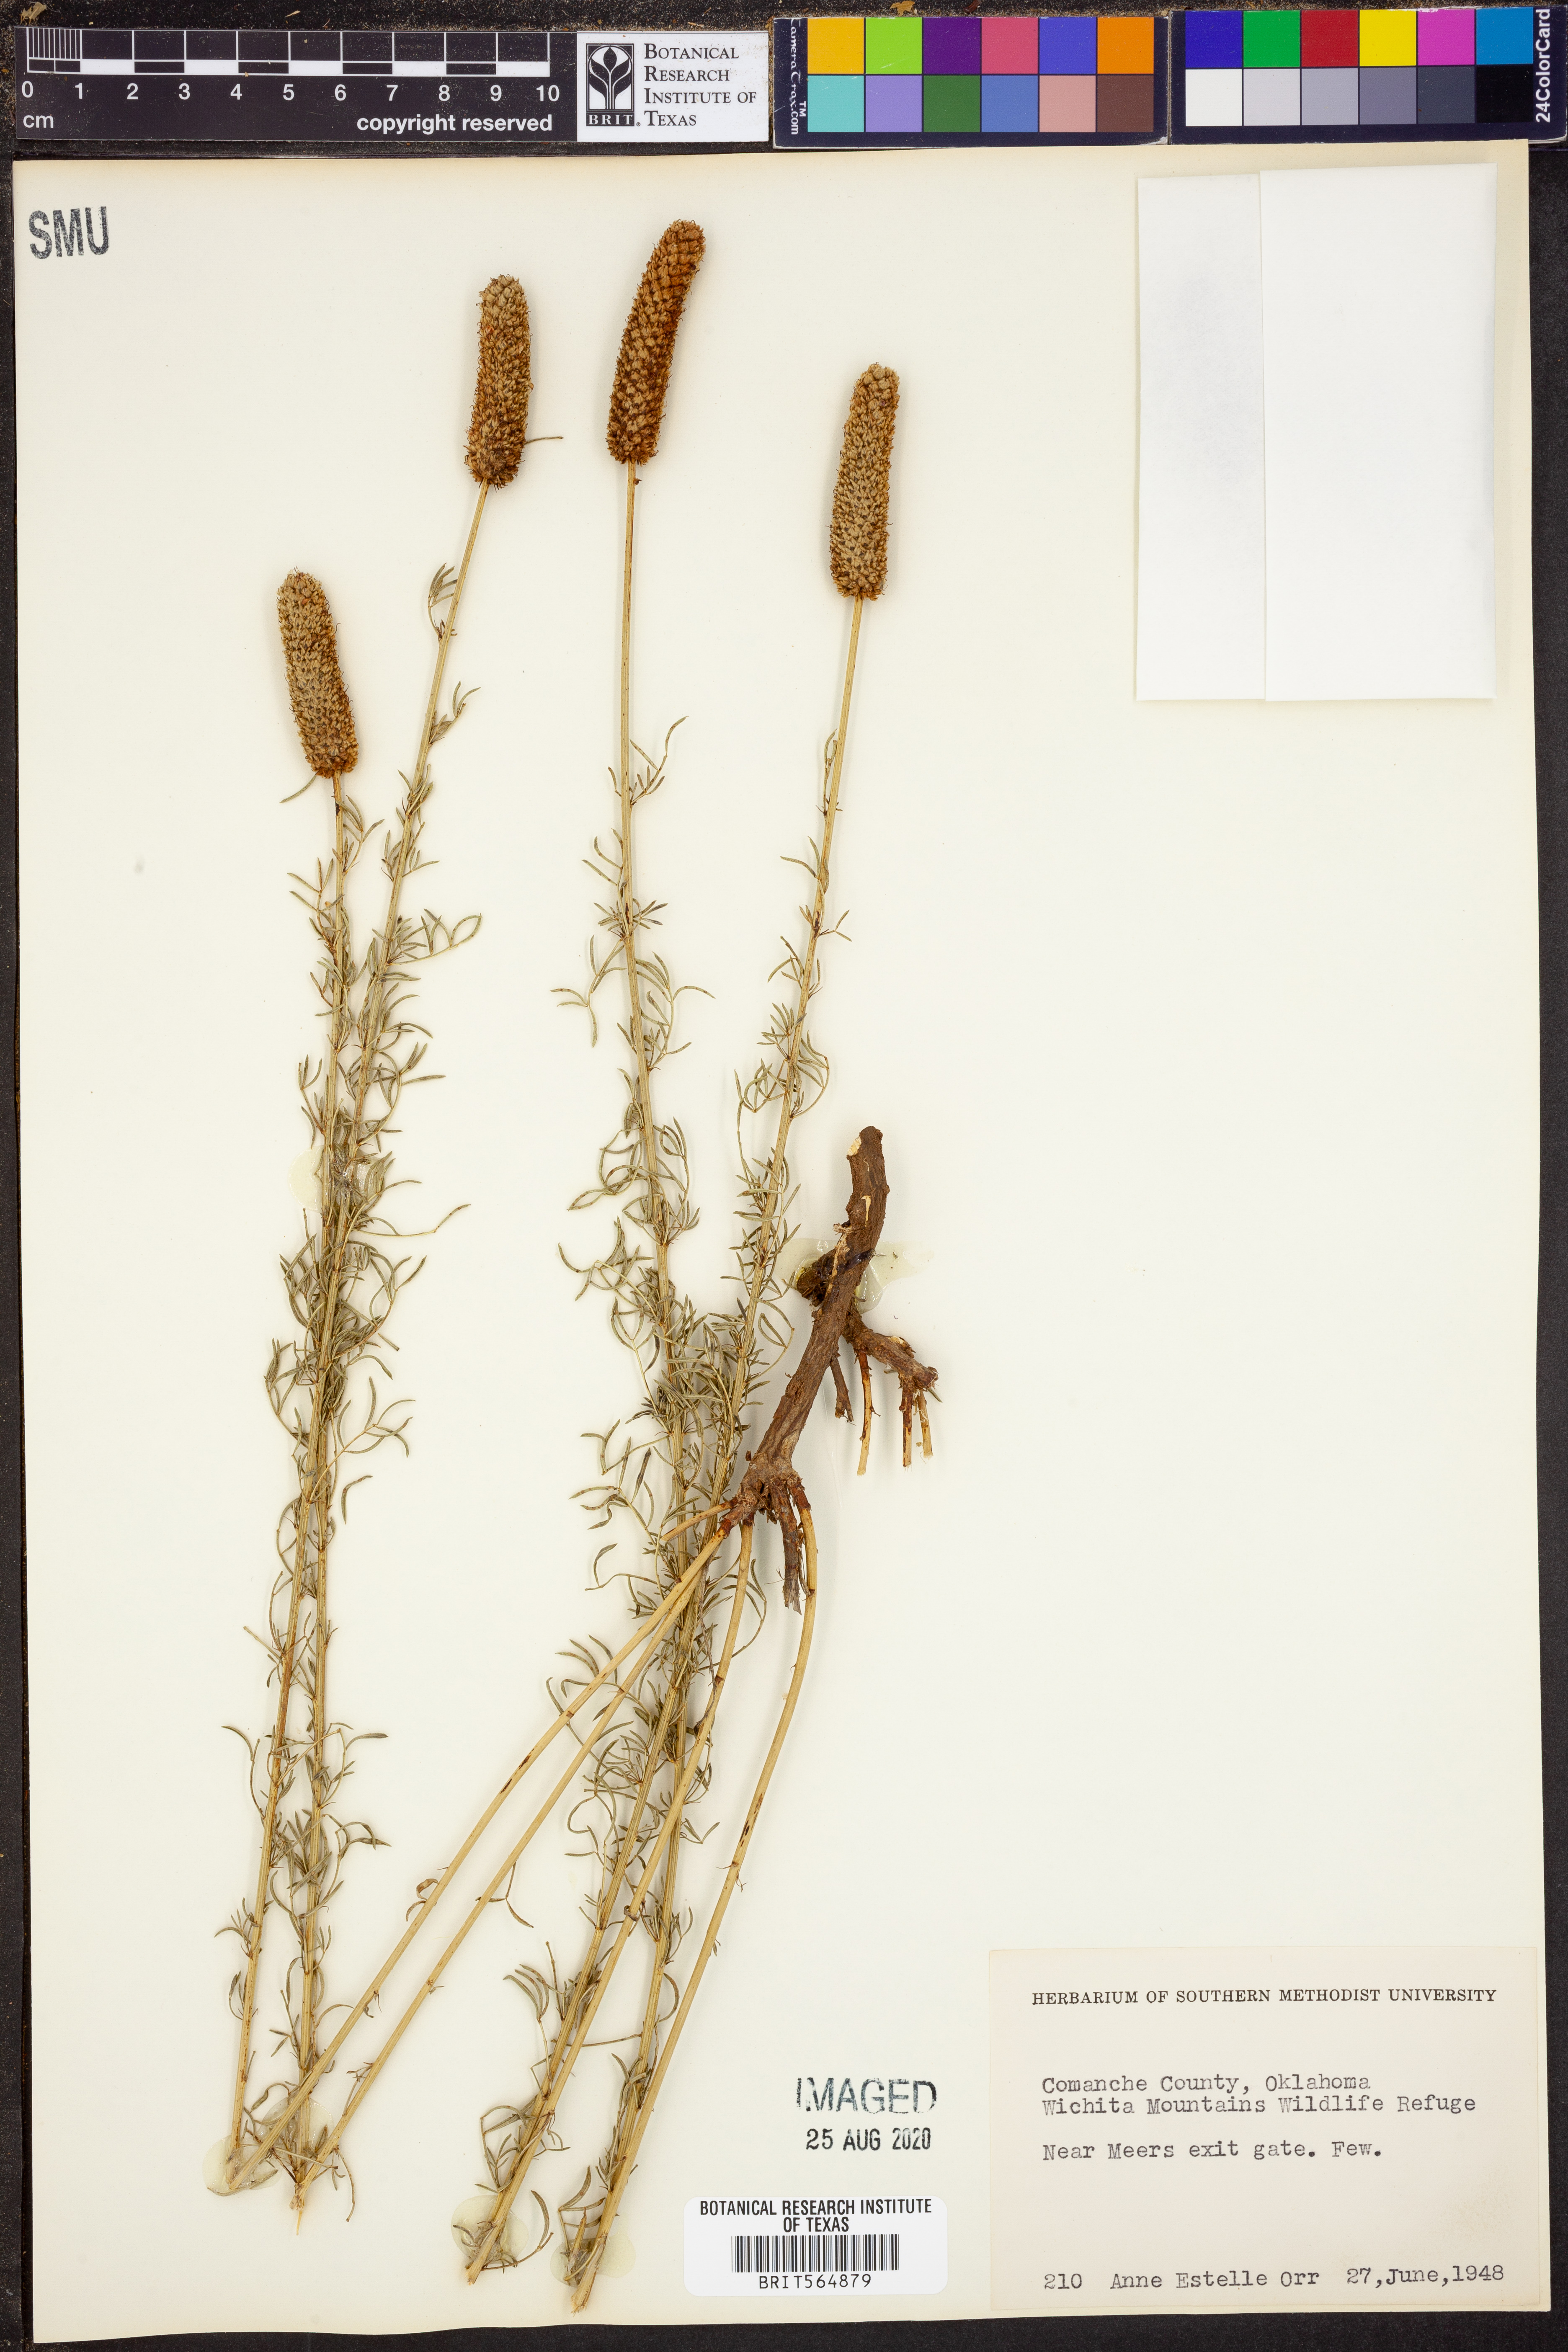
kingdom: Plantae
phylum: Tracheophyta
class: Magnoliopsida
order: Fabales
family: Fabaceae
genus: Dalea
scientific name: Dalea
